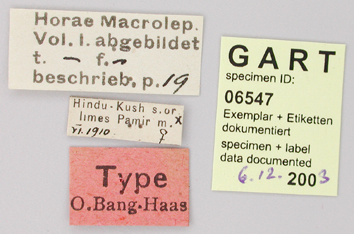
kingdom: Animalia
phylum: Arthropoda
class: Insecta
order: Lepidoptera
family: Papilionidae
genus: Parnassius
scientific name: Parnassius jacquemontii
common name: Keeled apollo
